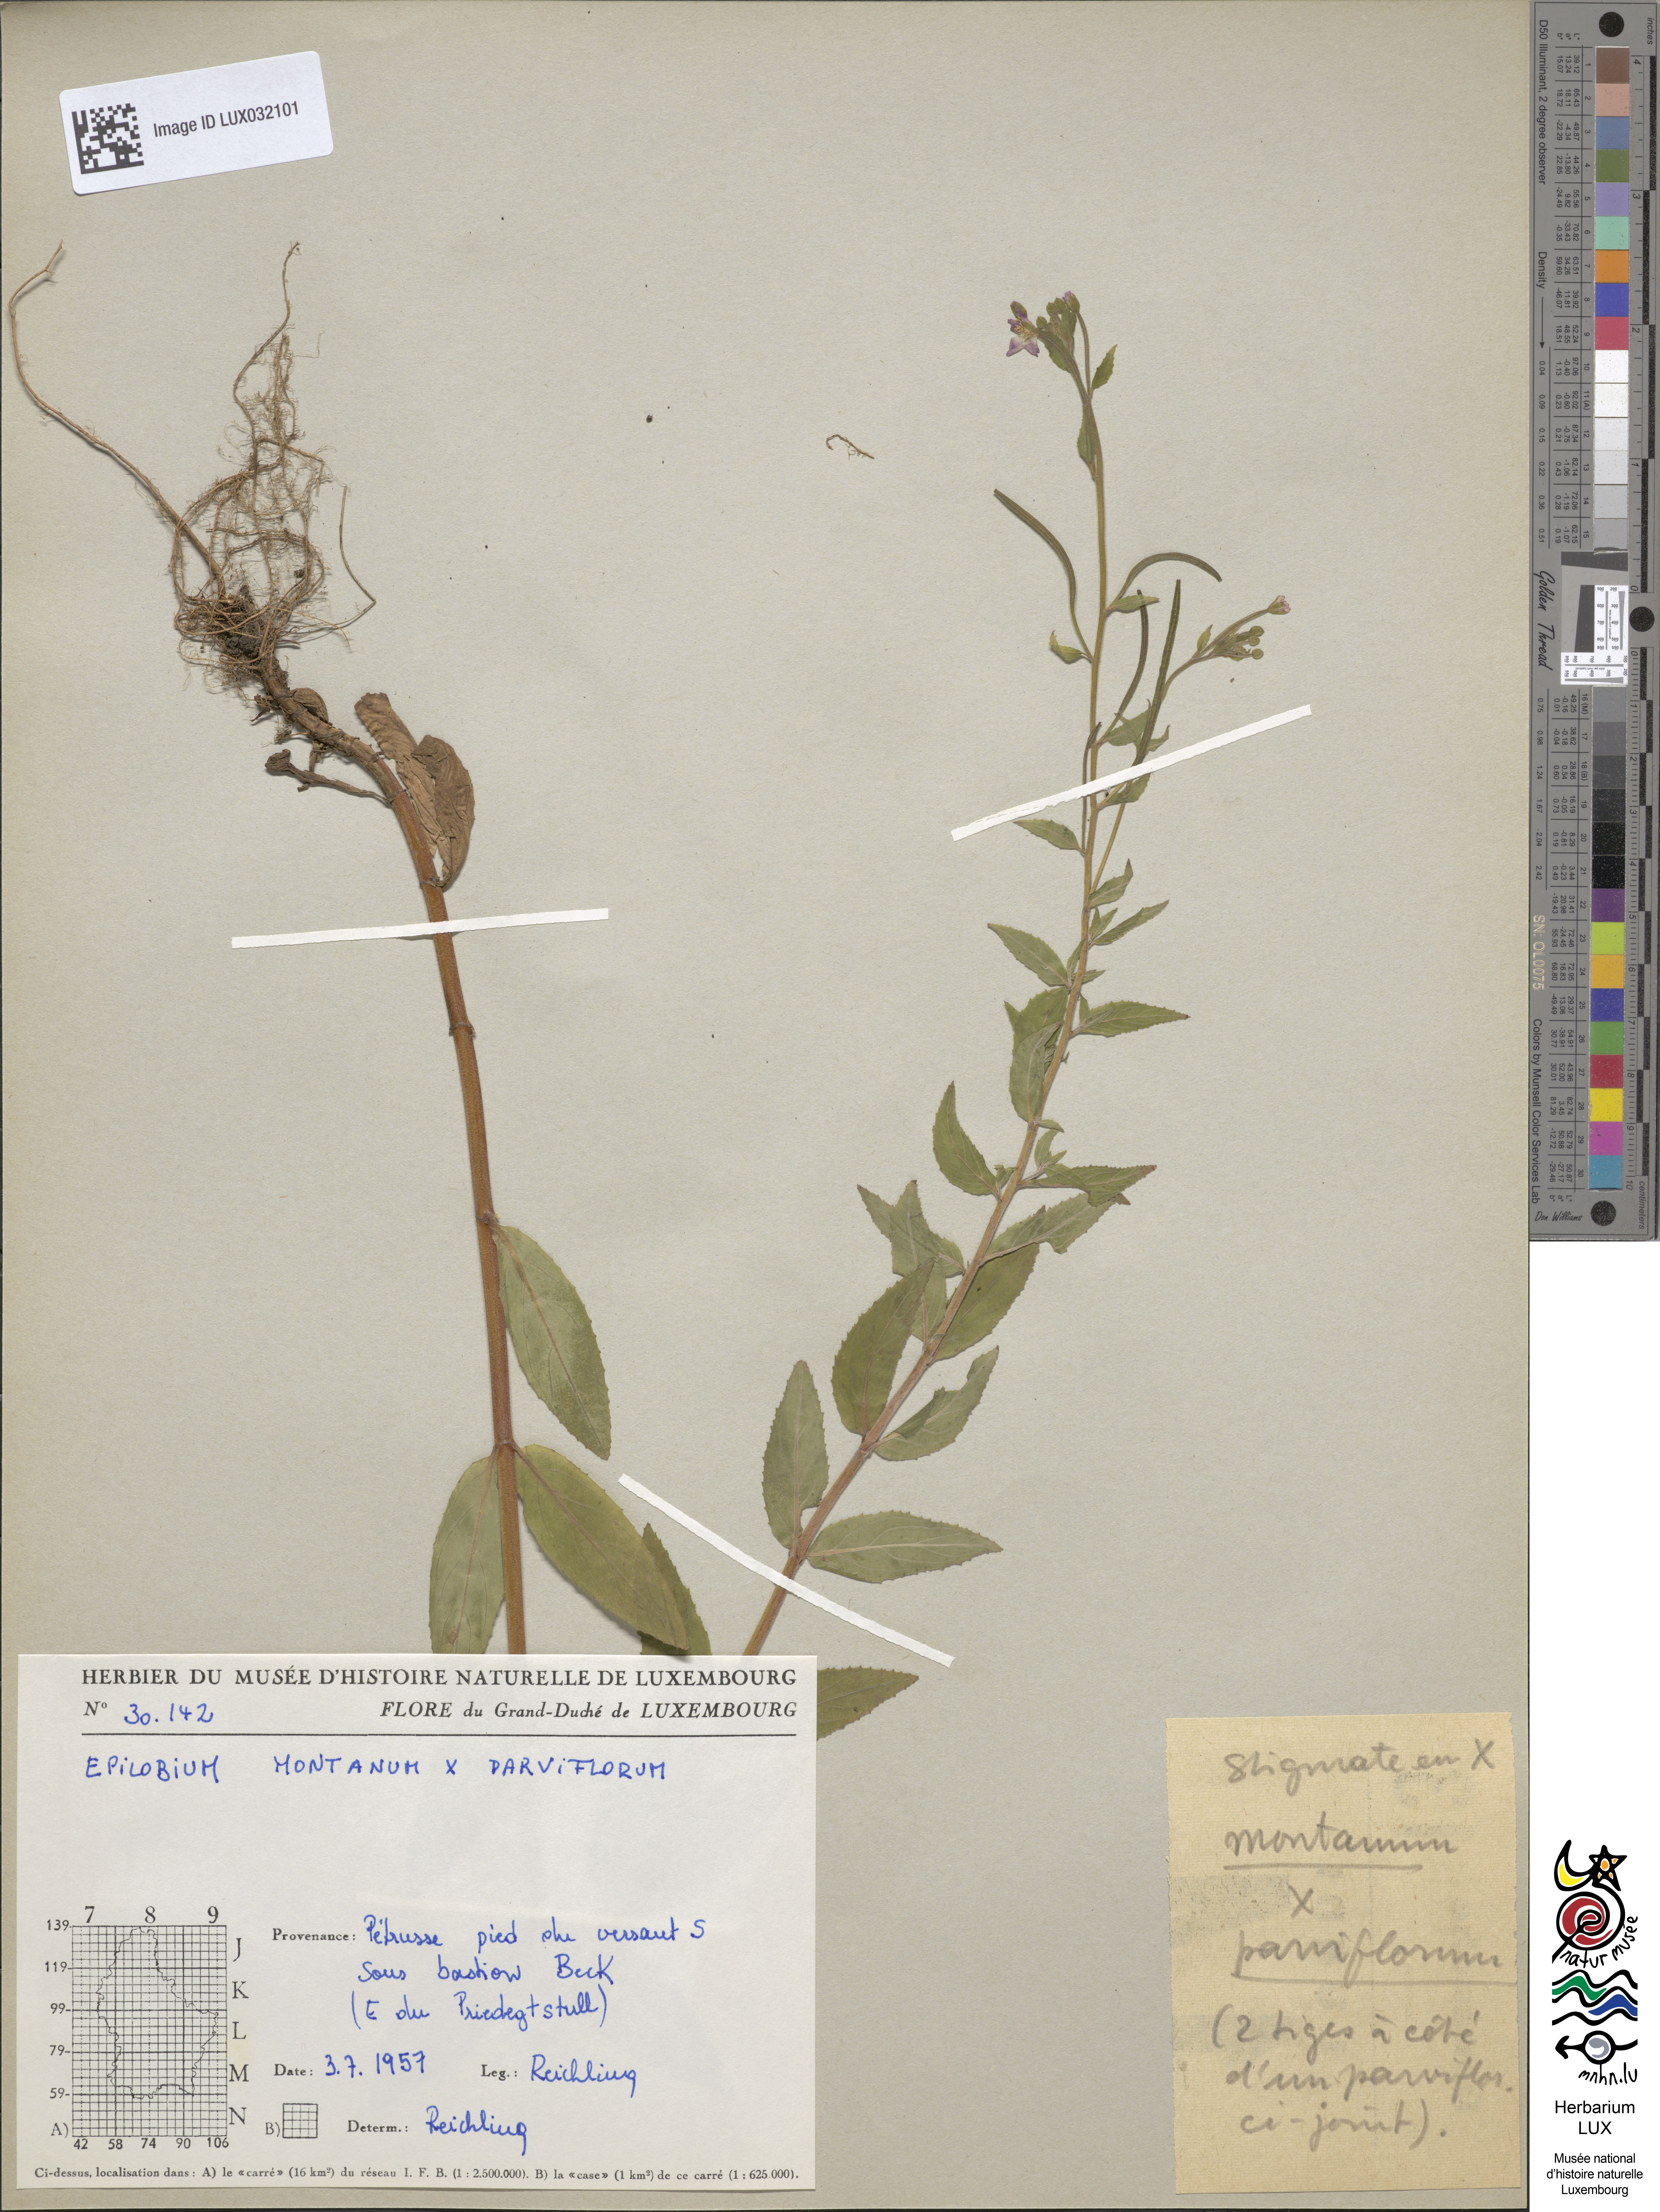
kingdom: Plantae
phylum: Tracheophyta
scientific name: Tracheophyta
